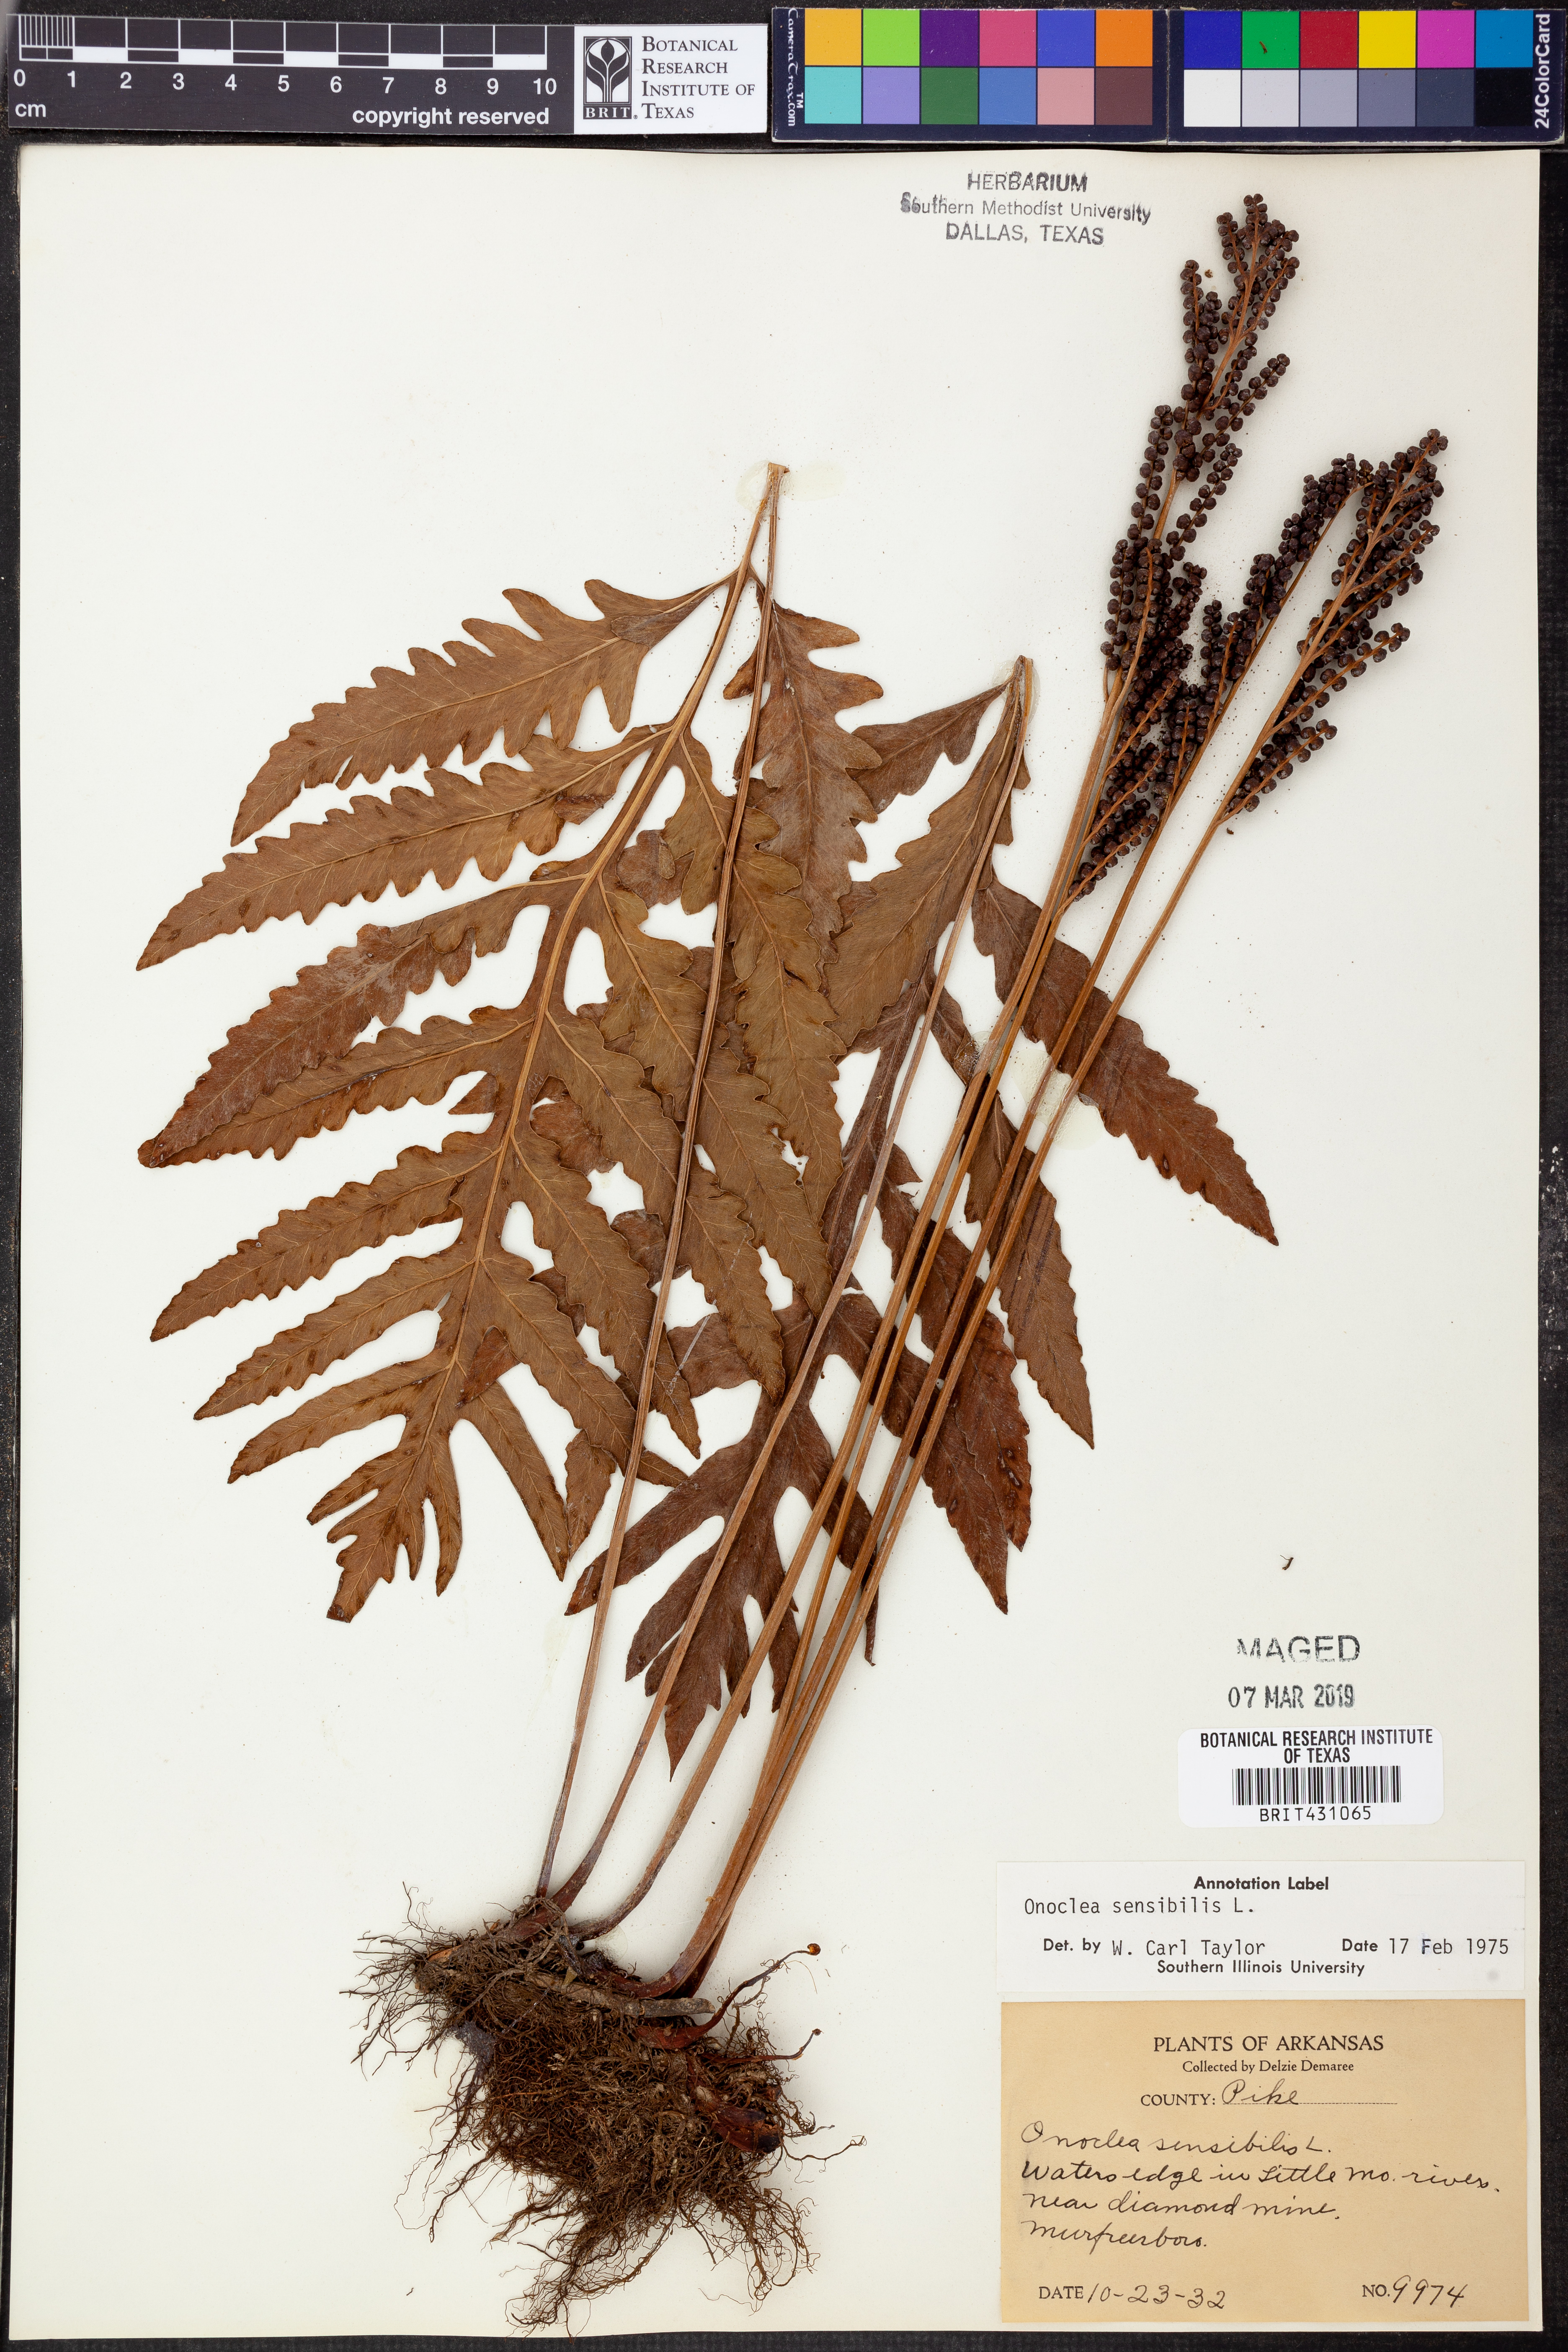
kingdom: Plantae
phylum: Tracheophyta
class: Polypodiopsida
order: Polypodiales
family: Onocleaceae
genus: Onoclea
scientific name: Onoclea sensibilis
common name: Sensitive fern
